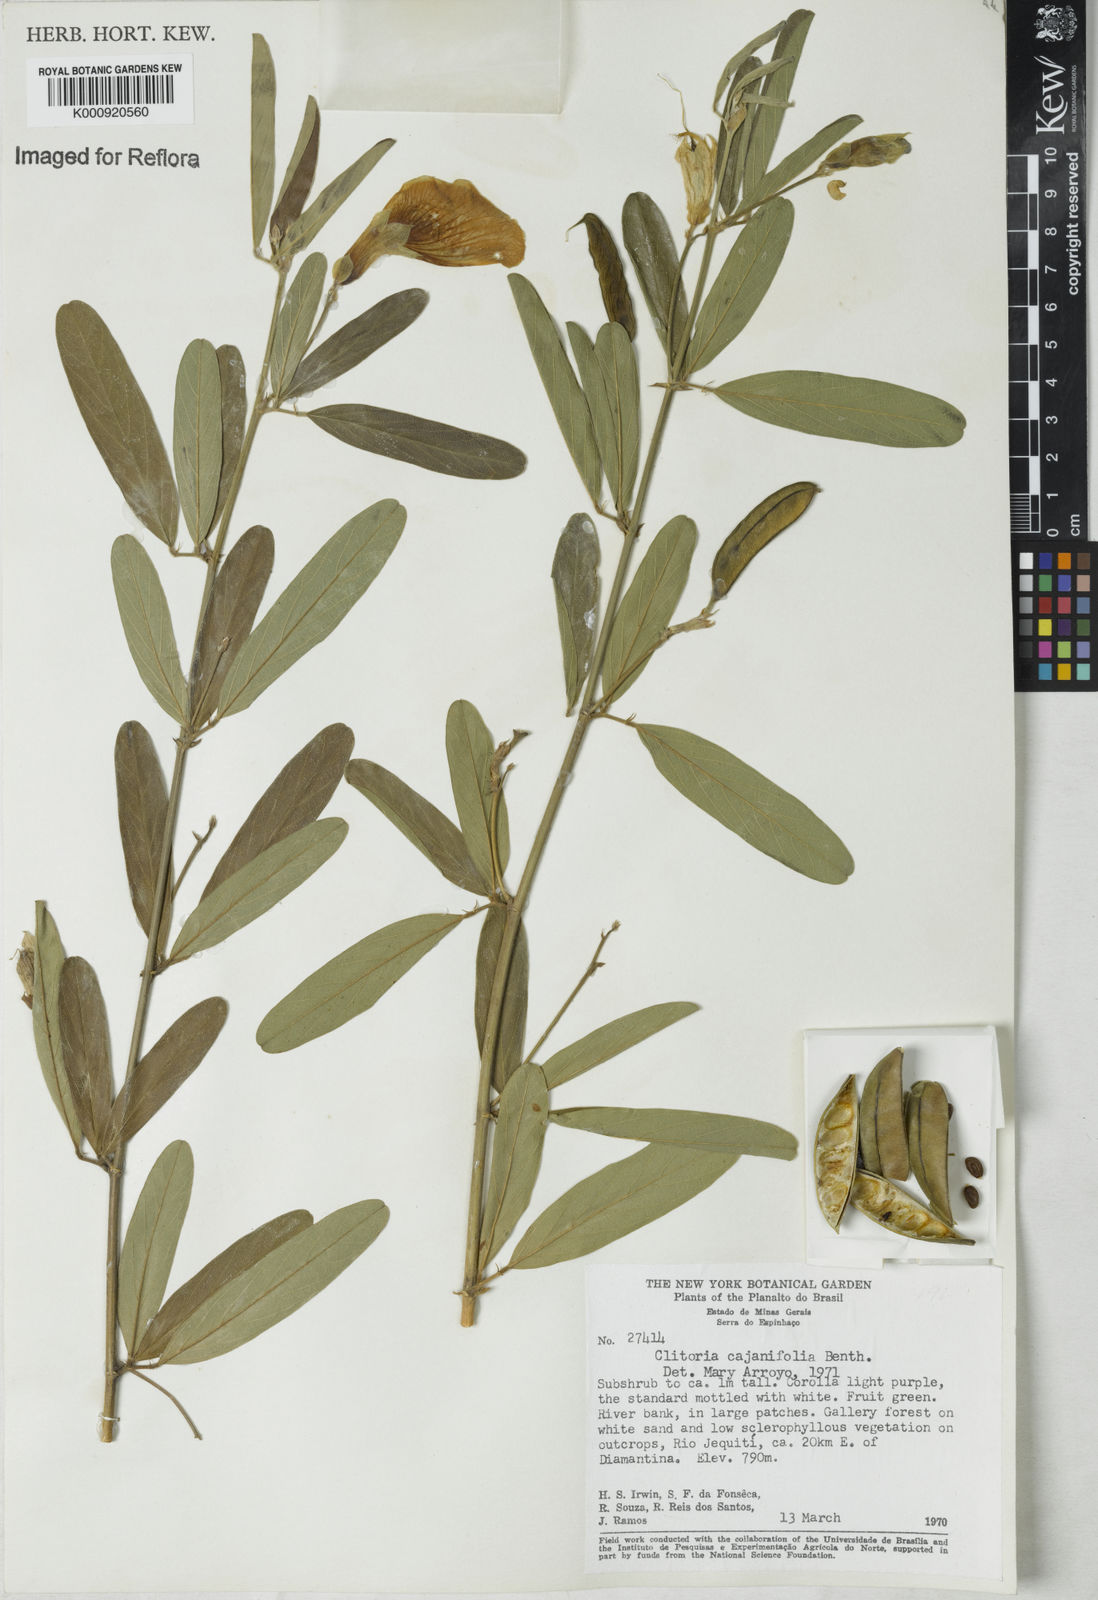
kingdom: Plantae
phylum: Tracheophyta
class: Magnoliopsida
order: Fabales
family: Fabaceae
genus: Clitoria
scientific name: Clitoria laurifolia
